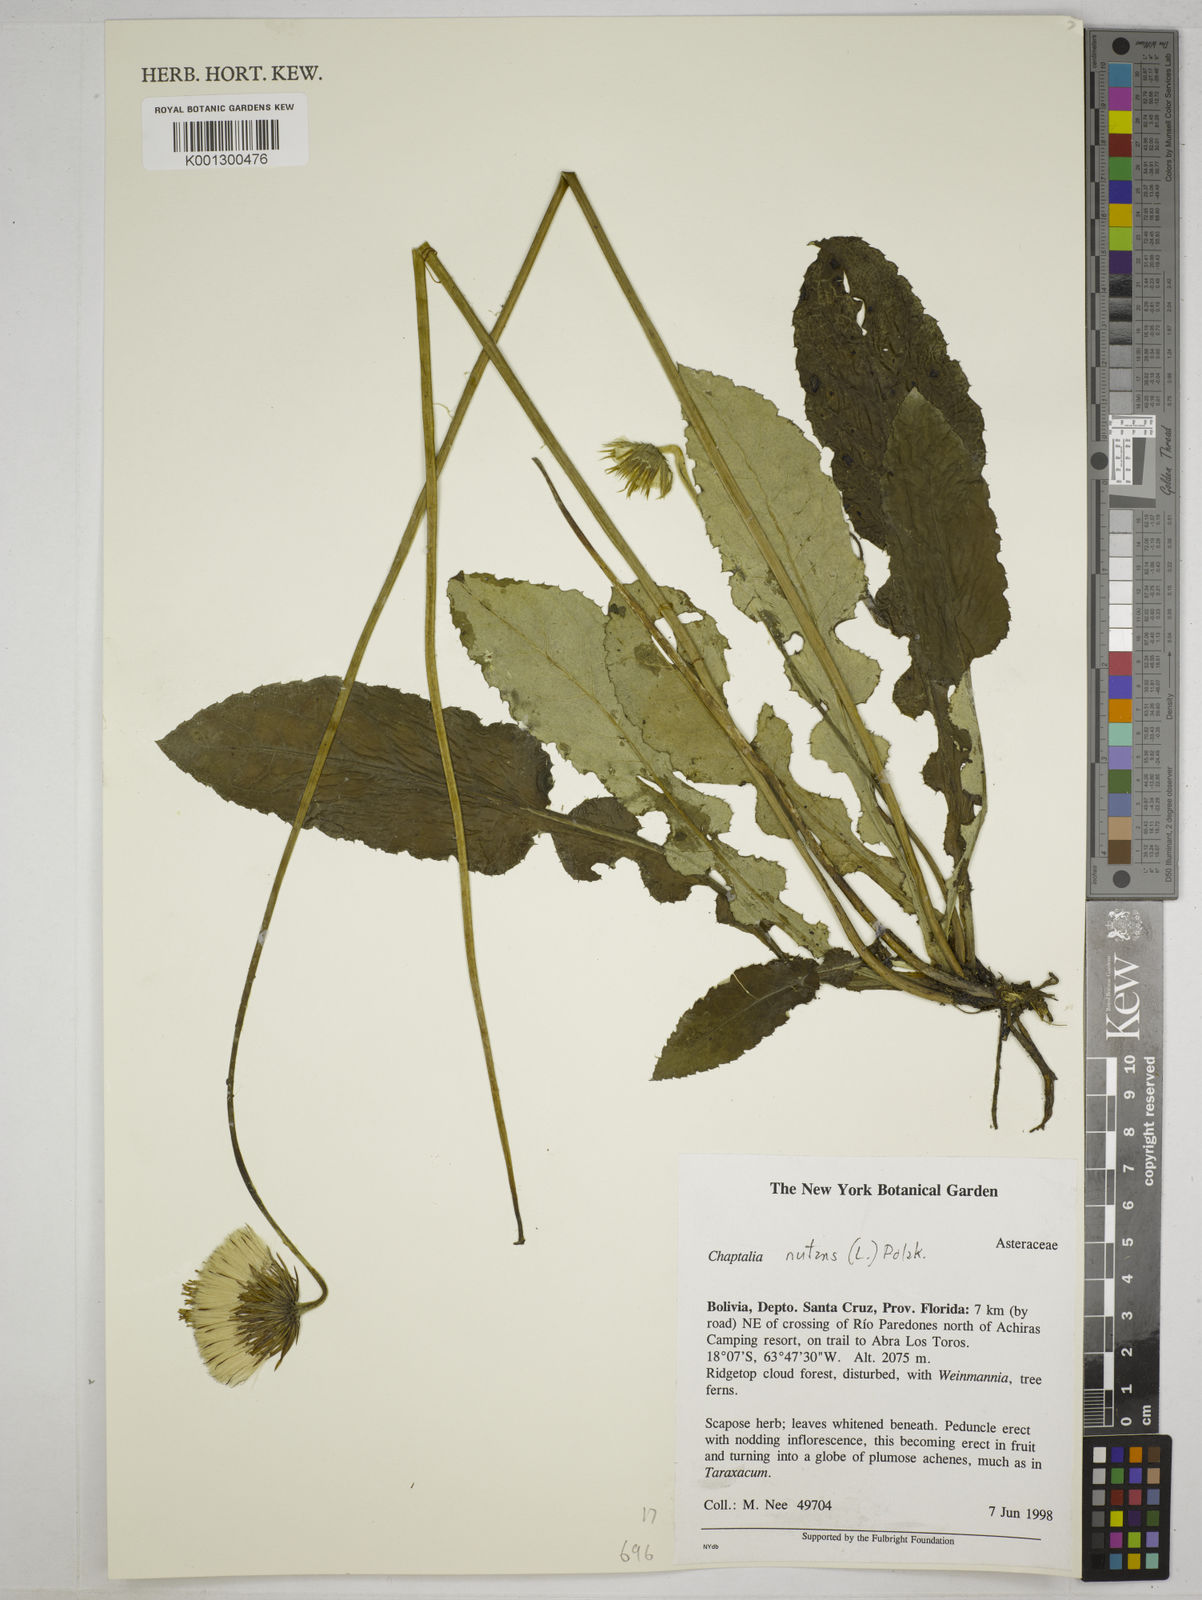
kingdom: Plantae
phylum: Tracheophyta
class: Magnoliopsida
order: Asterales
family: Asteraceae
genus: Chaptalia
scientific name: Chaptalia nutans
